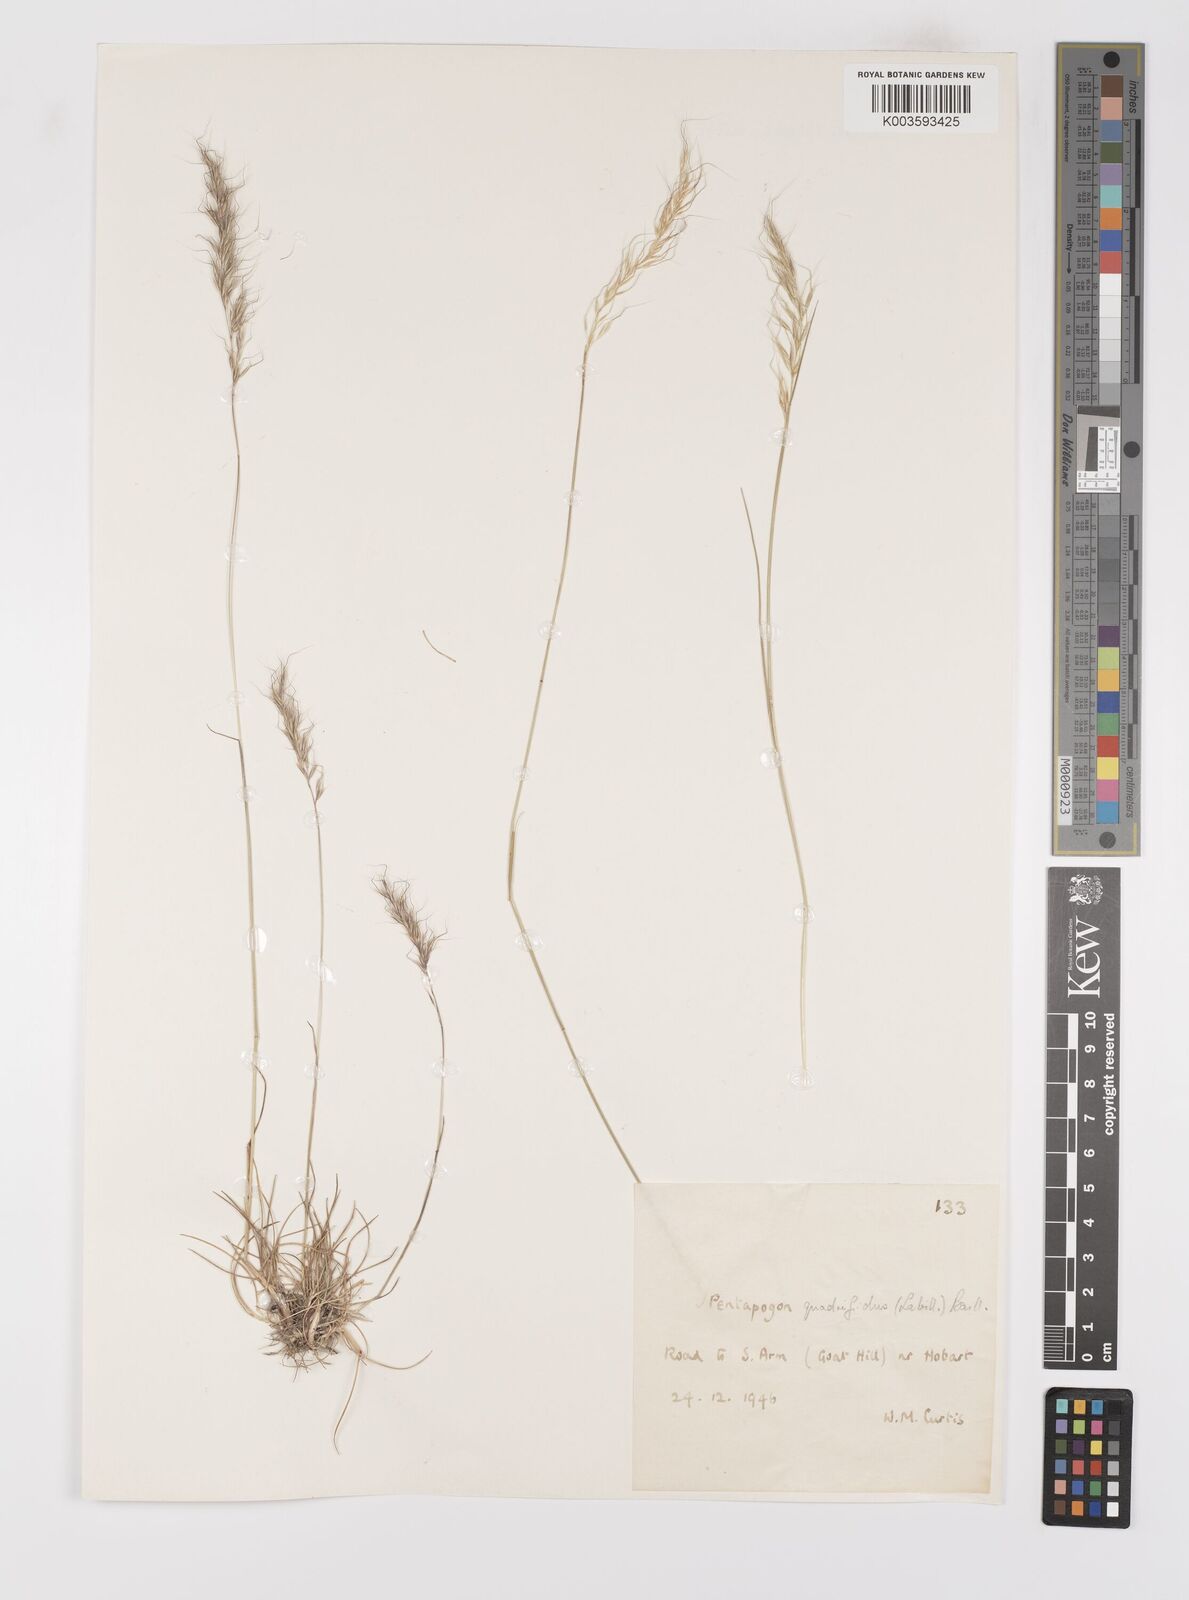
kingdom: Plantae
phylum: Tracheophyta
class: Liliopsida
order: Poales
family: Poaceae
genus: Pentapogon
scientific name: Pentapogon quadrifidus
